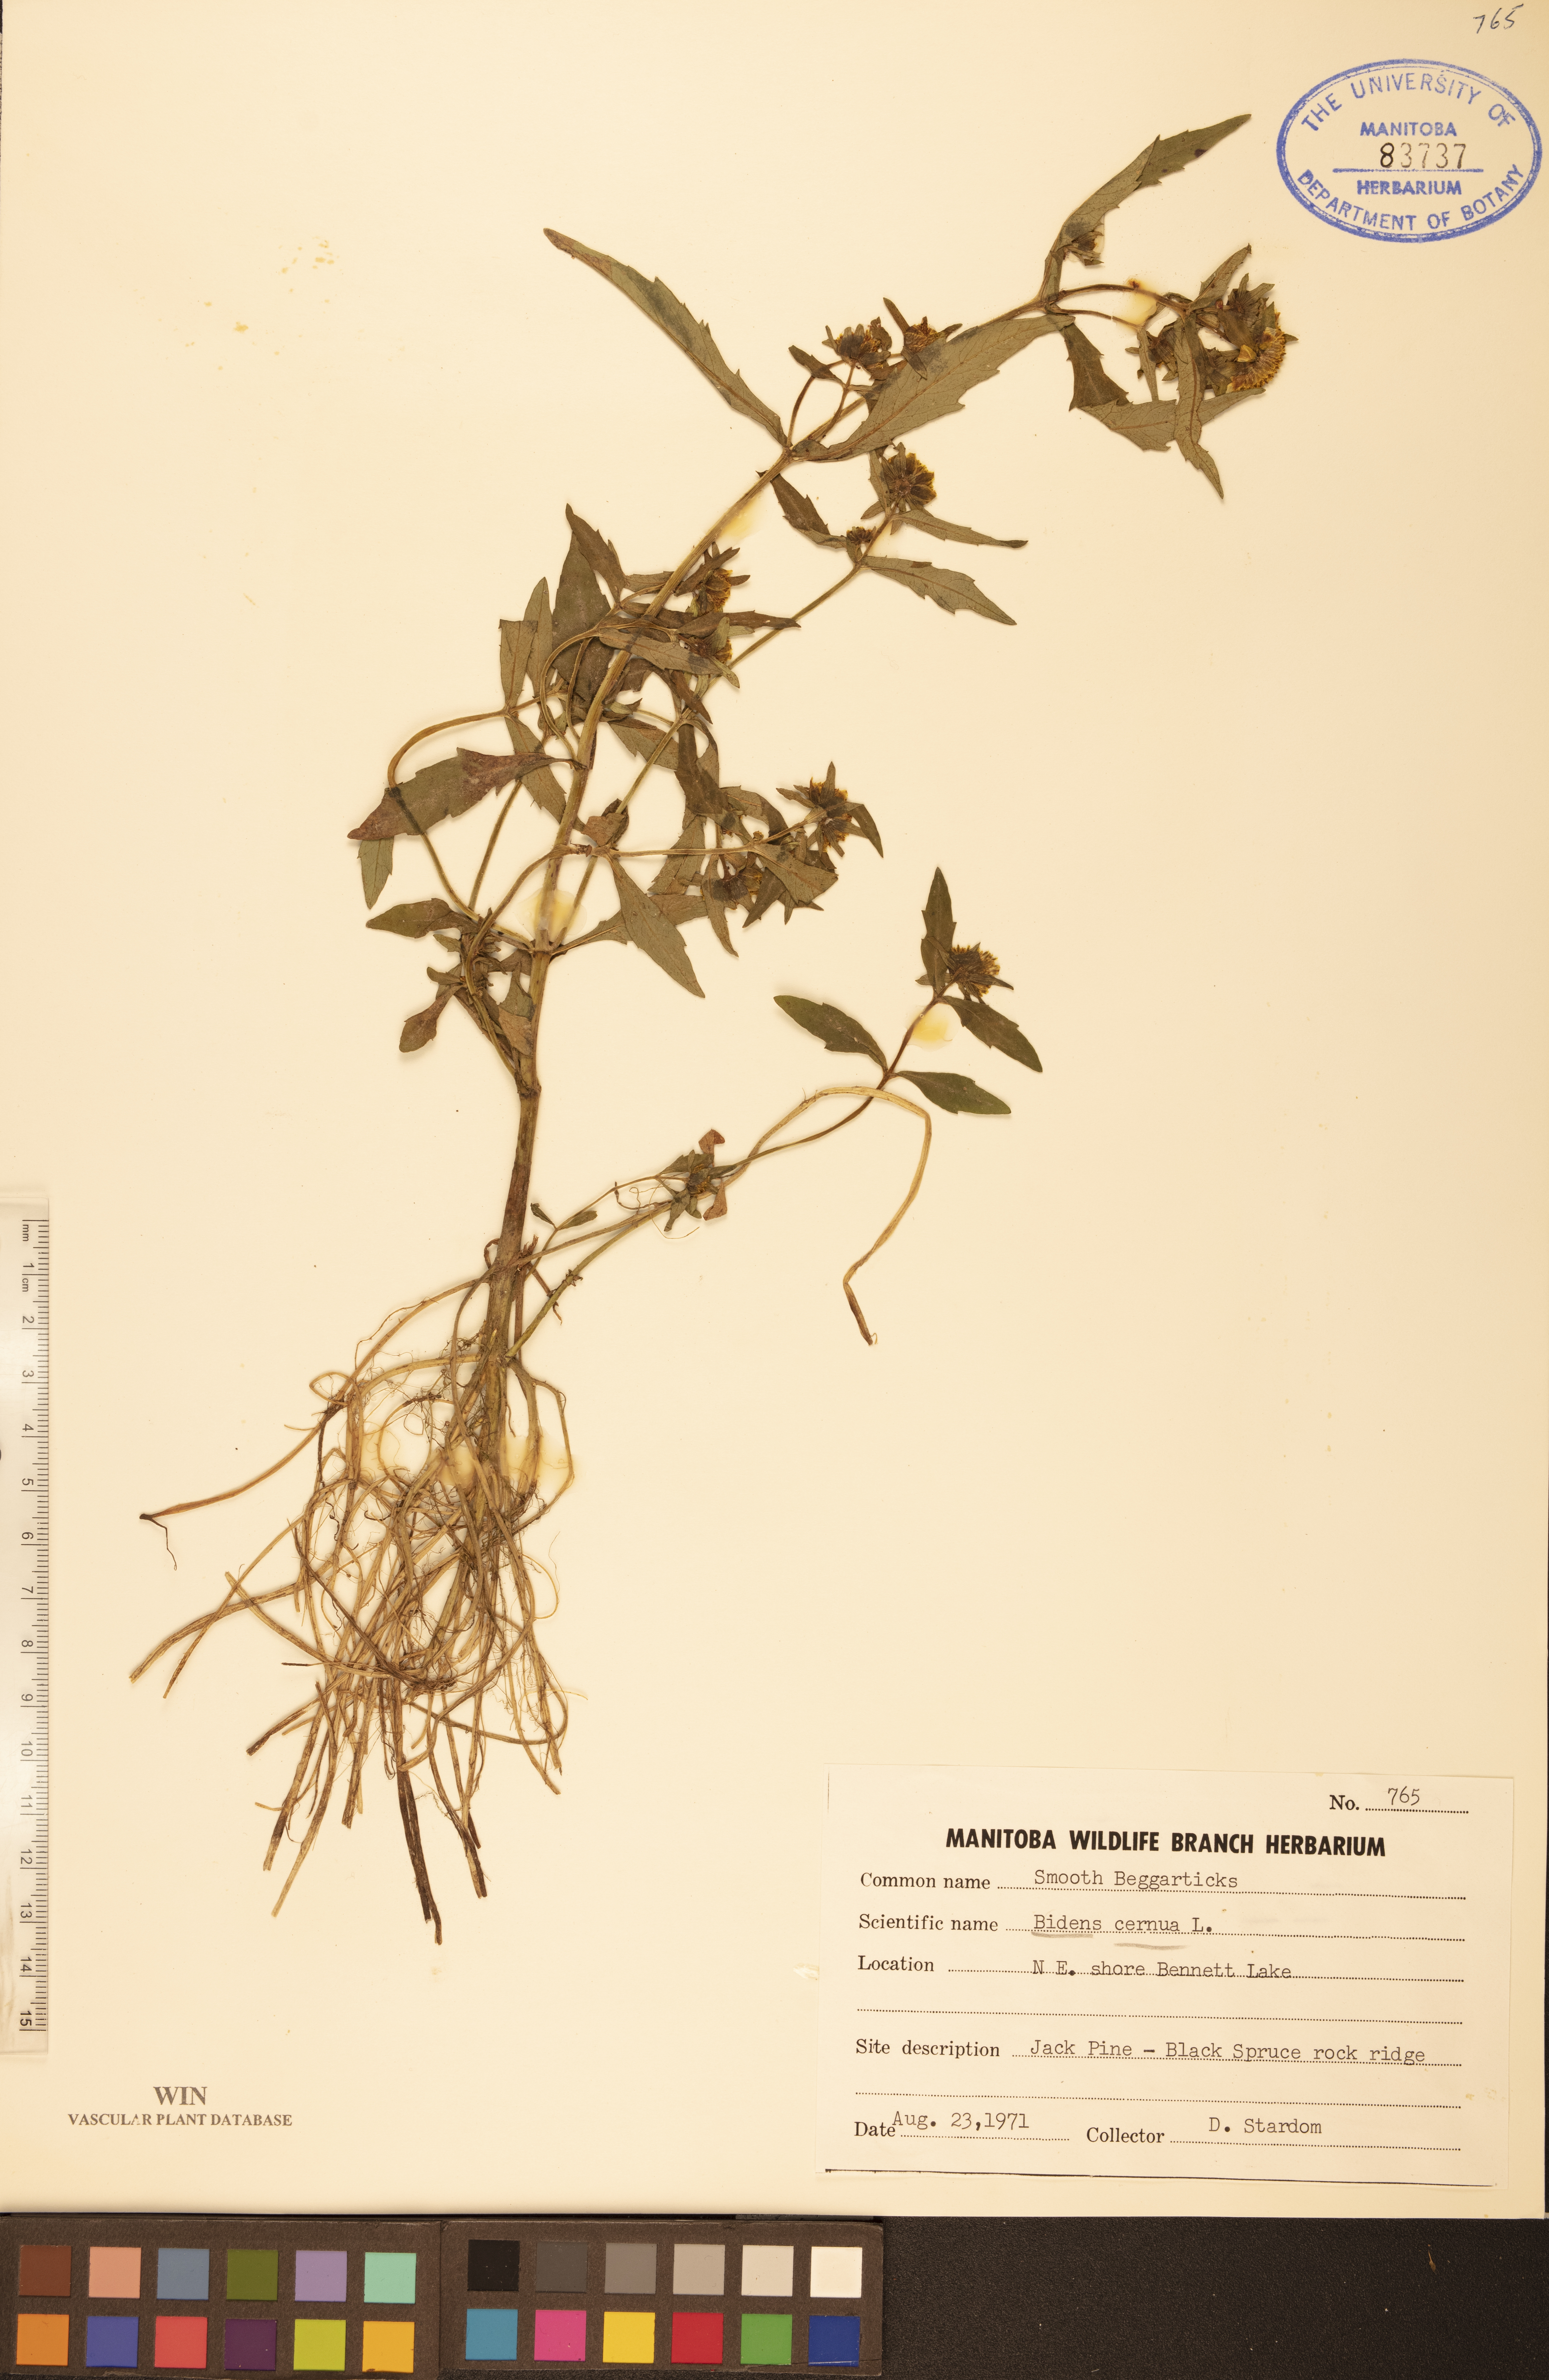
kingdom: Plantae
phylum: Tracheophyta
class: Magnoliopsida
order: Asterales
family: Asteraceae
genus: Bidens
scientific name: Bidens cernua
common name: Nodding bur-marigold
